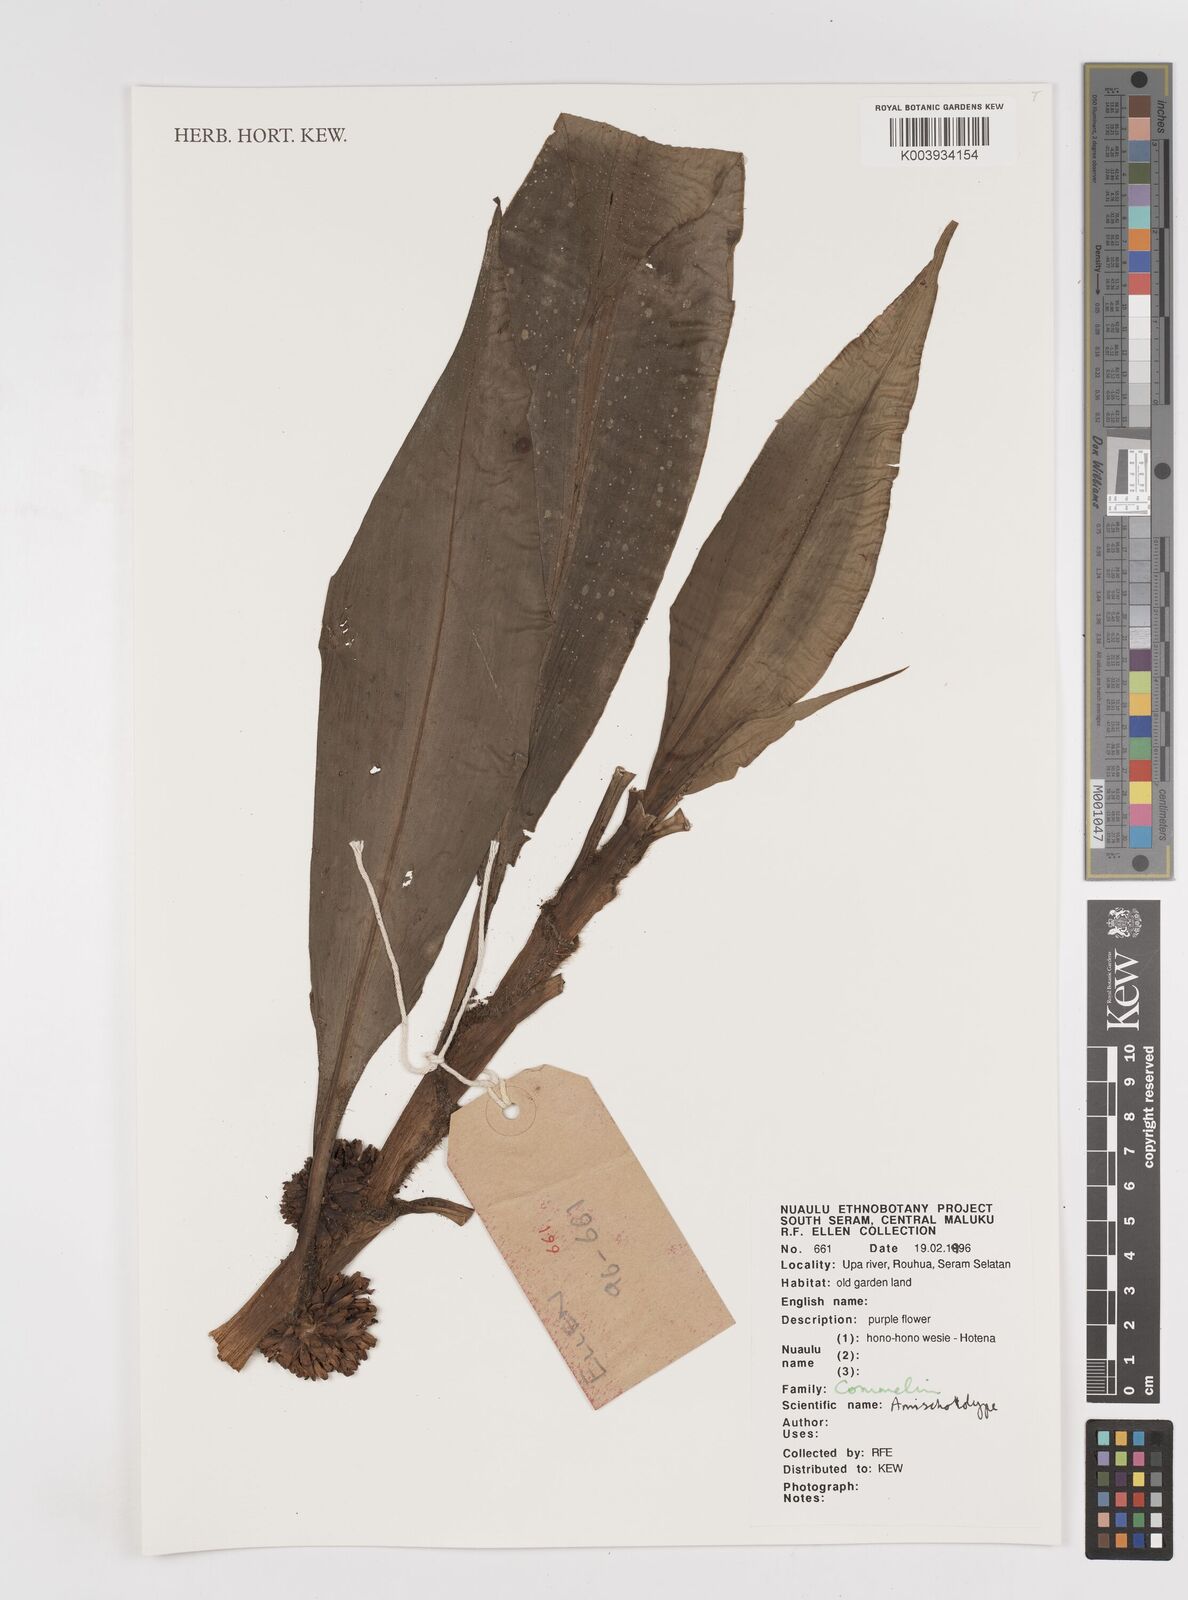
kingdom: Plantae
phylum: Tracheophyta
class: Liliopsida
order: Commelinales
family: Commelinaceae
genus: Amischotolype
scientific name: Amischotolype
